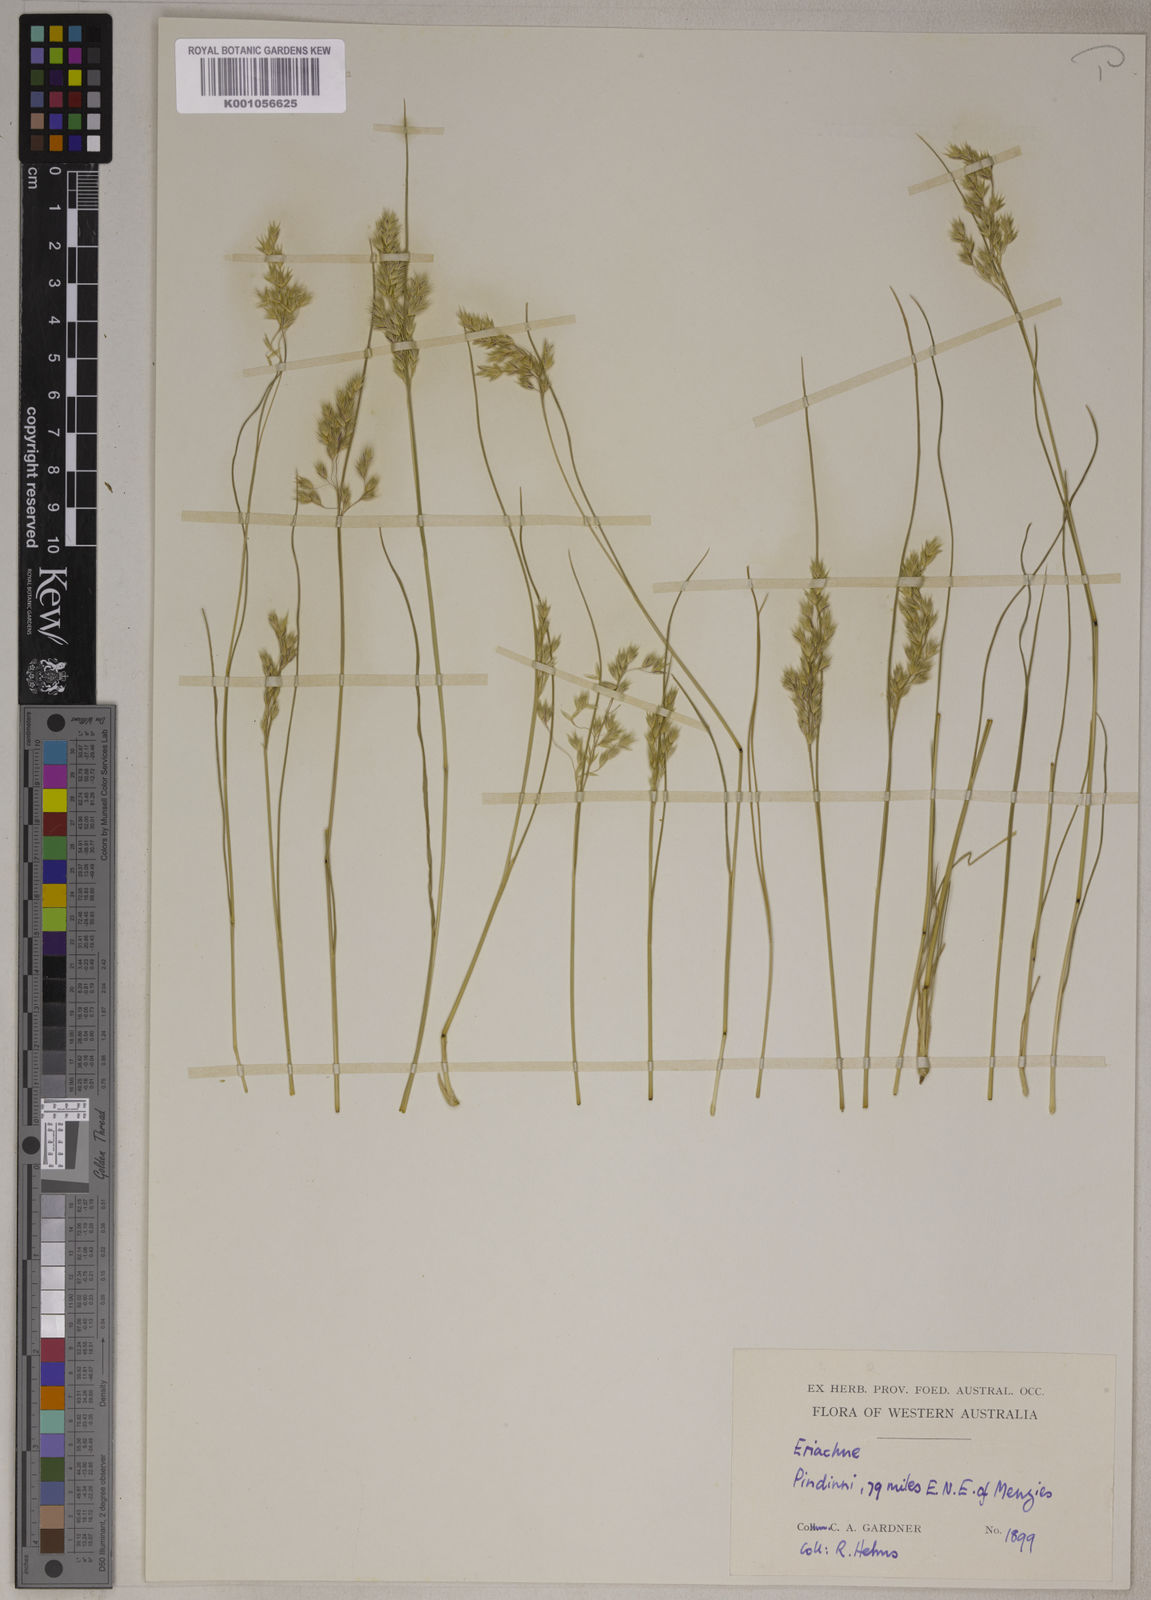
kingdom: Plantae
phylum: Tracheophyta
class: Liliopsida
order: Poales
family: Poaceae
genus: Eriachne
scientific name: Eriachne flaccida
